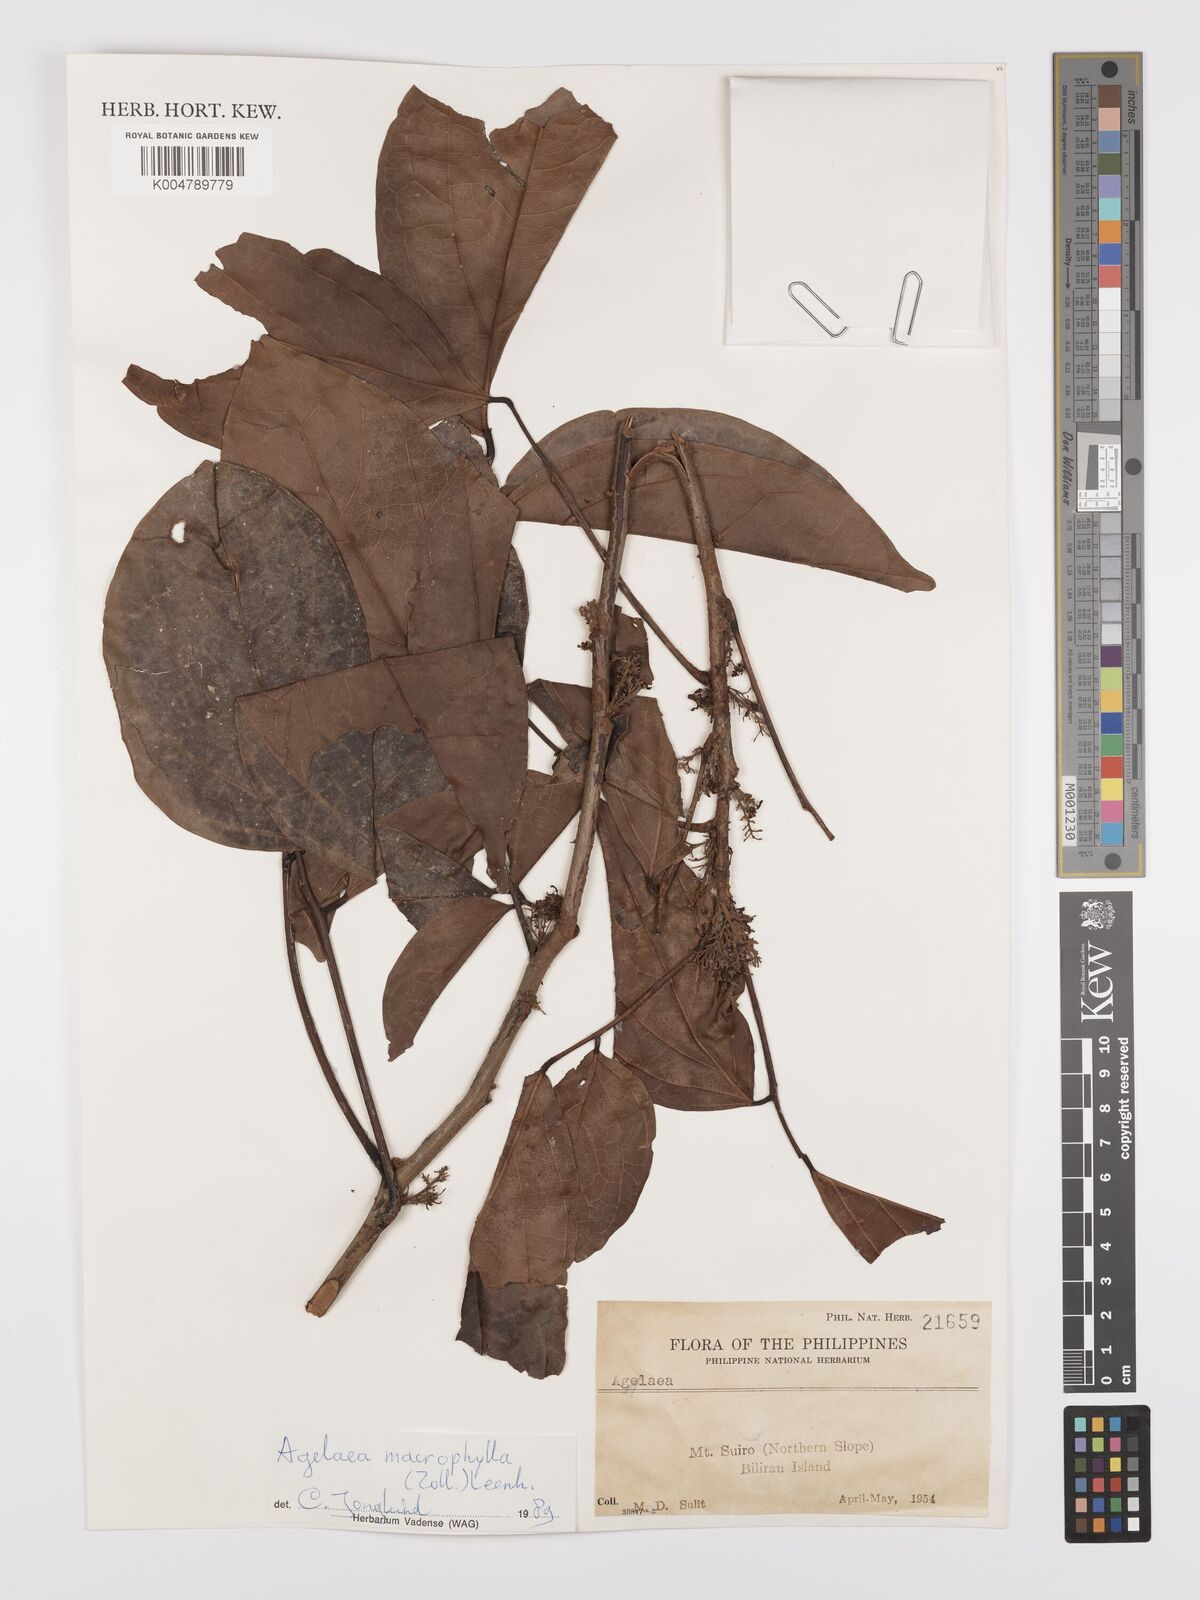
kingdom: Plantae
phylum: Tracheophyta
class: Magnoliopsida
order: Oxalidales
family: Connaraceae
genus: Agelaea
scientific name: Agelaea macrophylla
